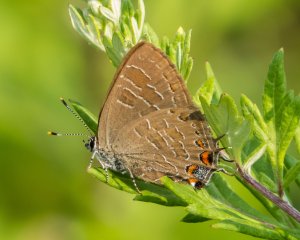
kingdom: Animalia
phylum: Arthropoda
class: Insecta
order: Lepidoptera
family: Lycaenidae
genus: Satyrium
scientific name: Satyrium liparops
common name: Striped Hairstreak
